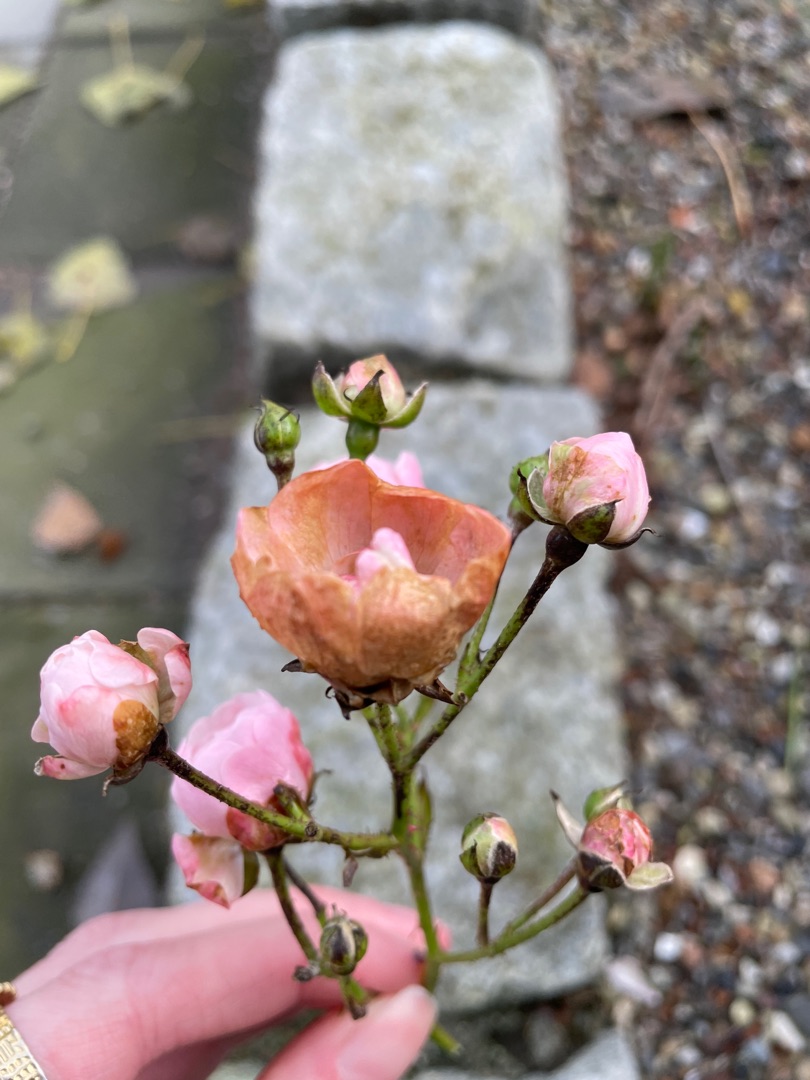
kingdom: Plantae
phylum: Tracheophyta
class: Magnoliopsida
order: Rosales
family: Rosaceae
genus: Rosa
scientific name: Rosa
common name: Roseslægten
